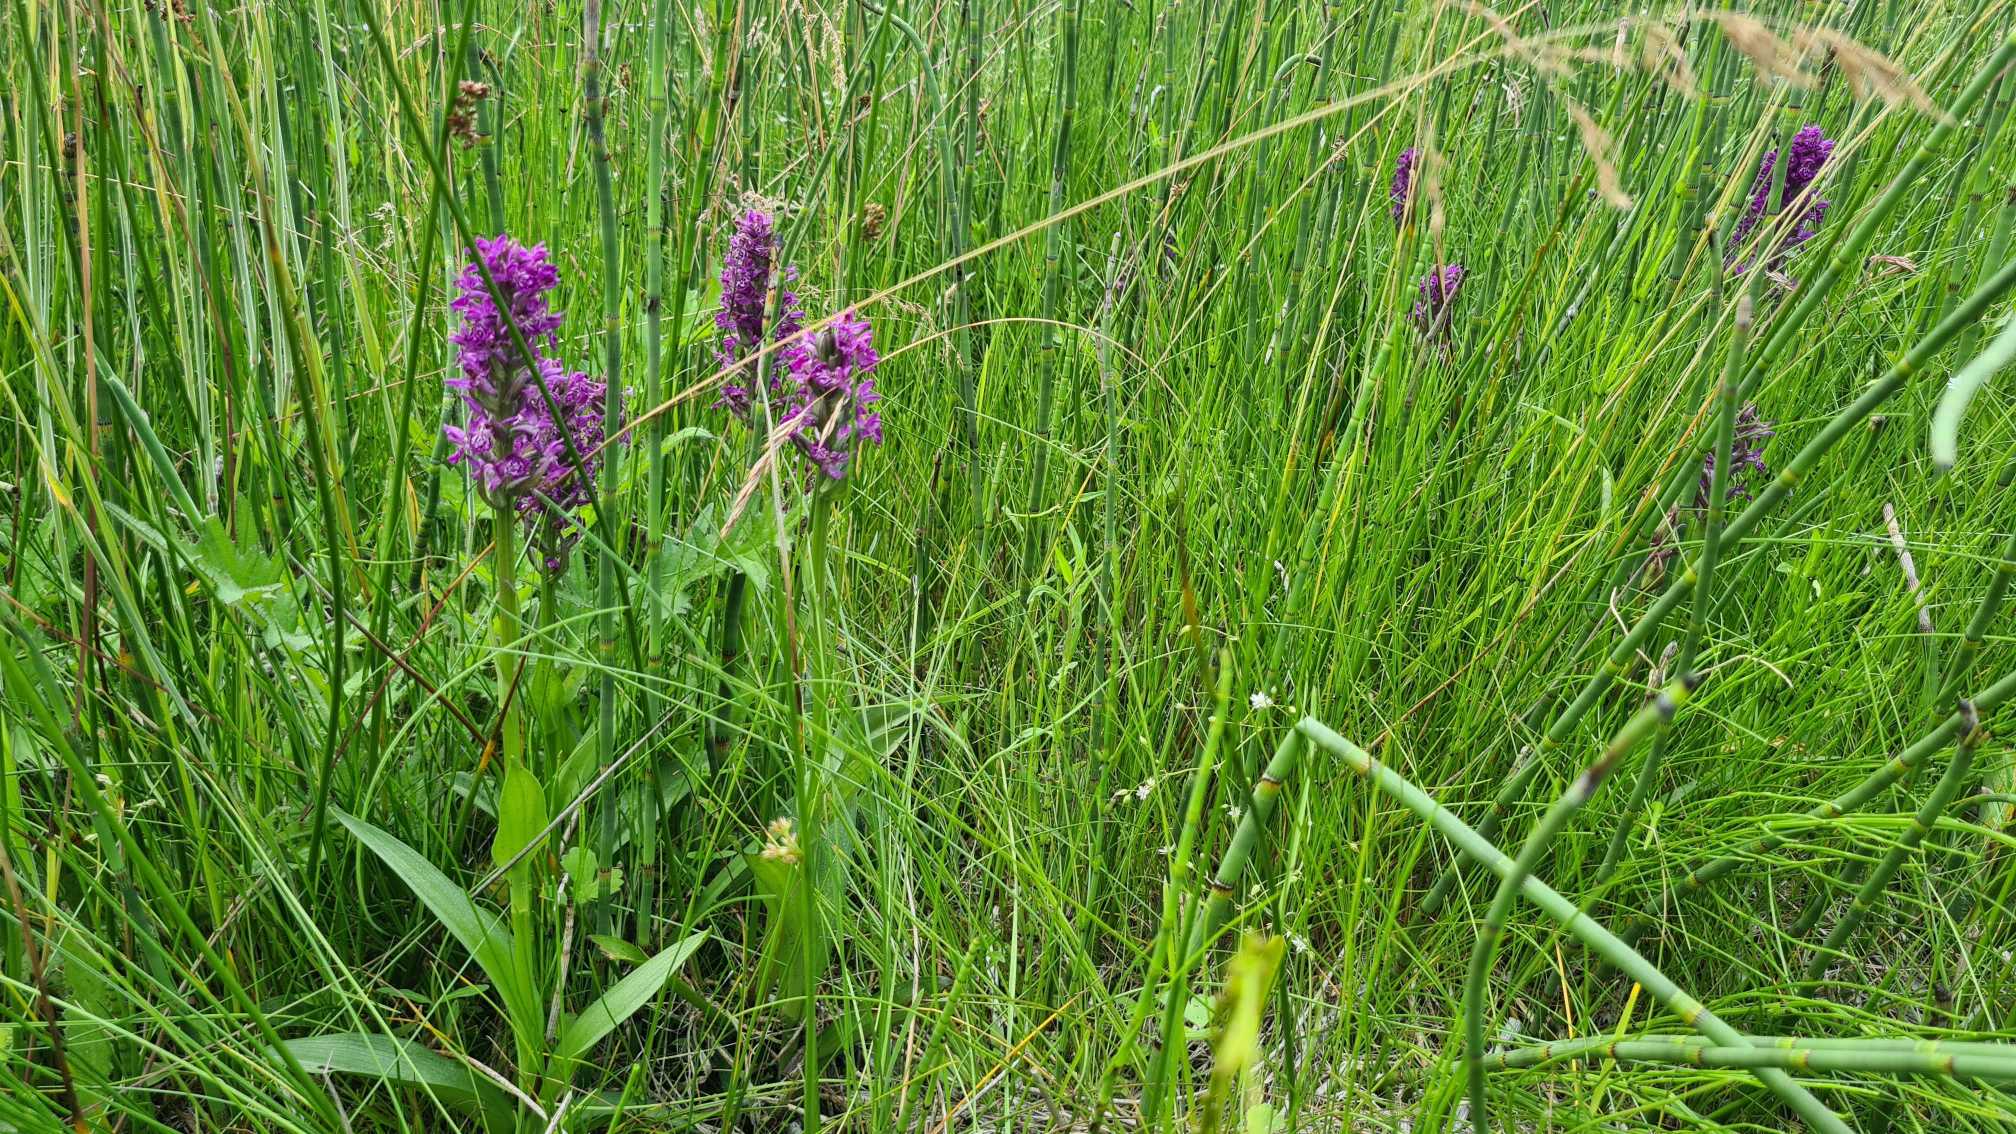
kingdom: Plantae
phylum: Tracheophyta
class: Liliopsida
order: Asparagales
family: Orchidaceae
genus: Dactylorhiza
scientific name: Dactylorhiza majalis
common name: Maj-gøgeurt
